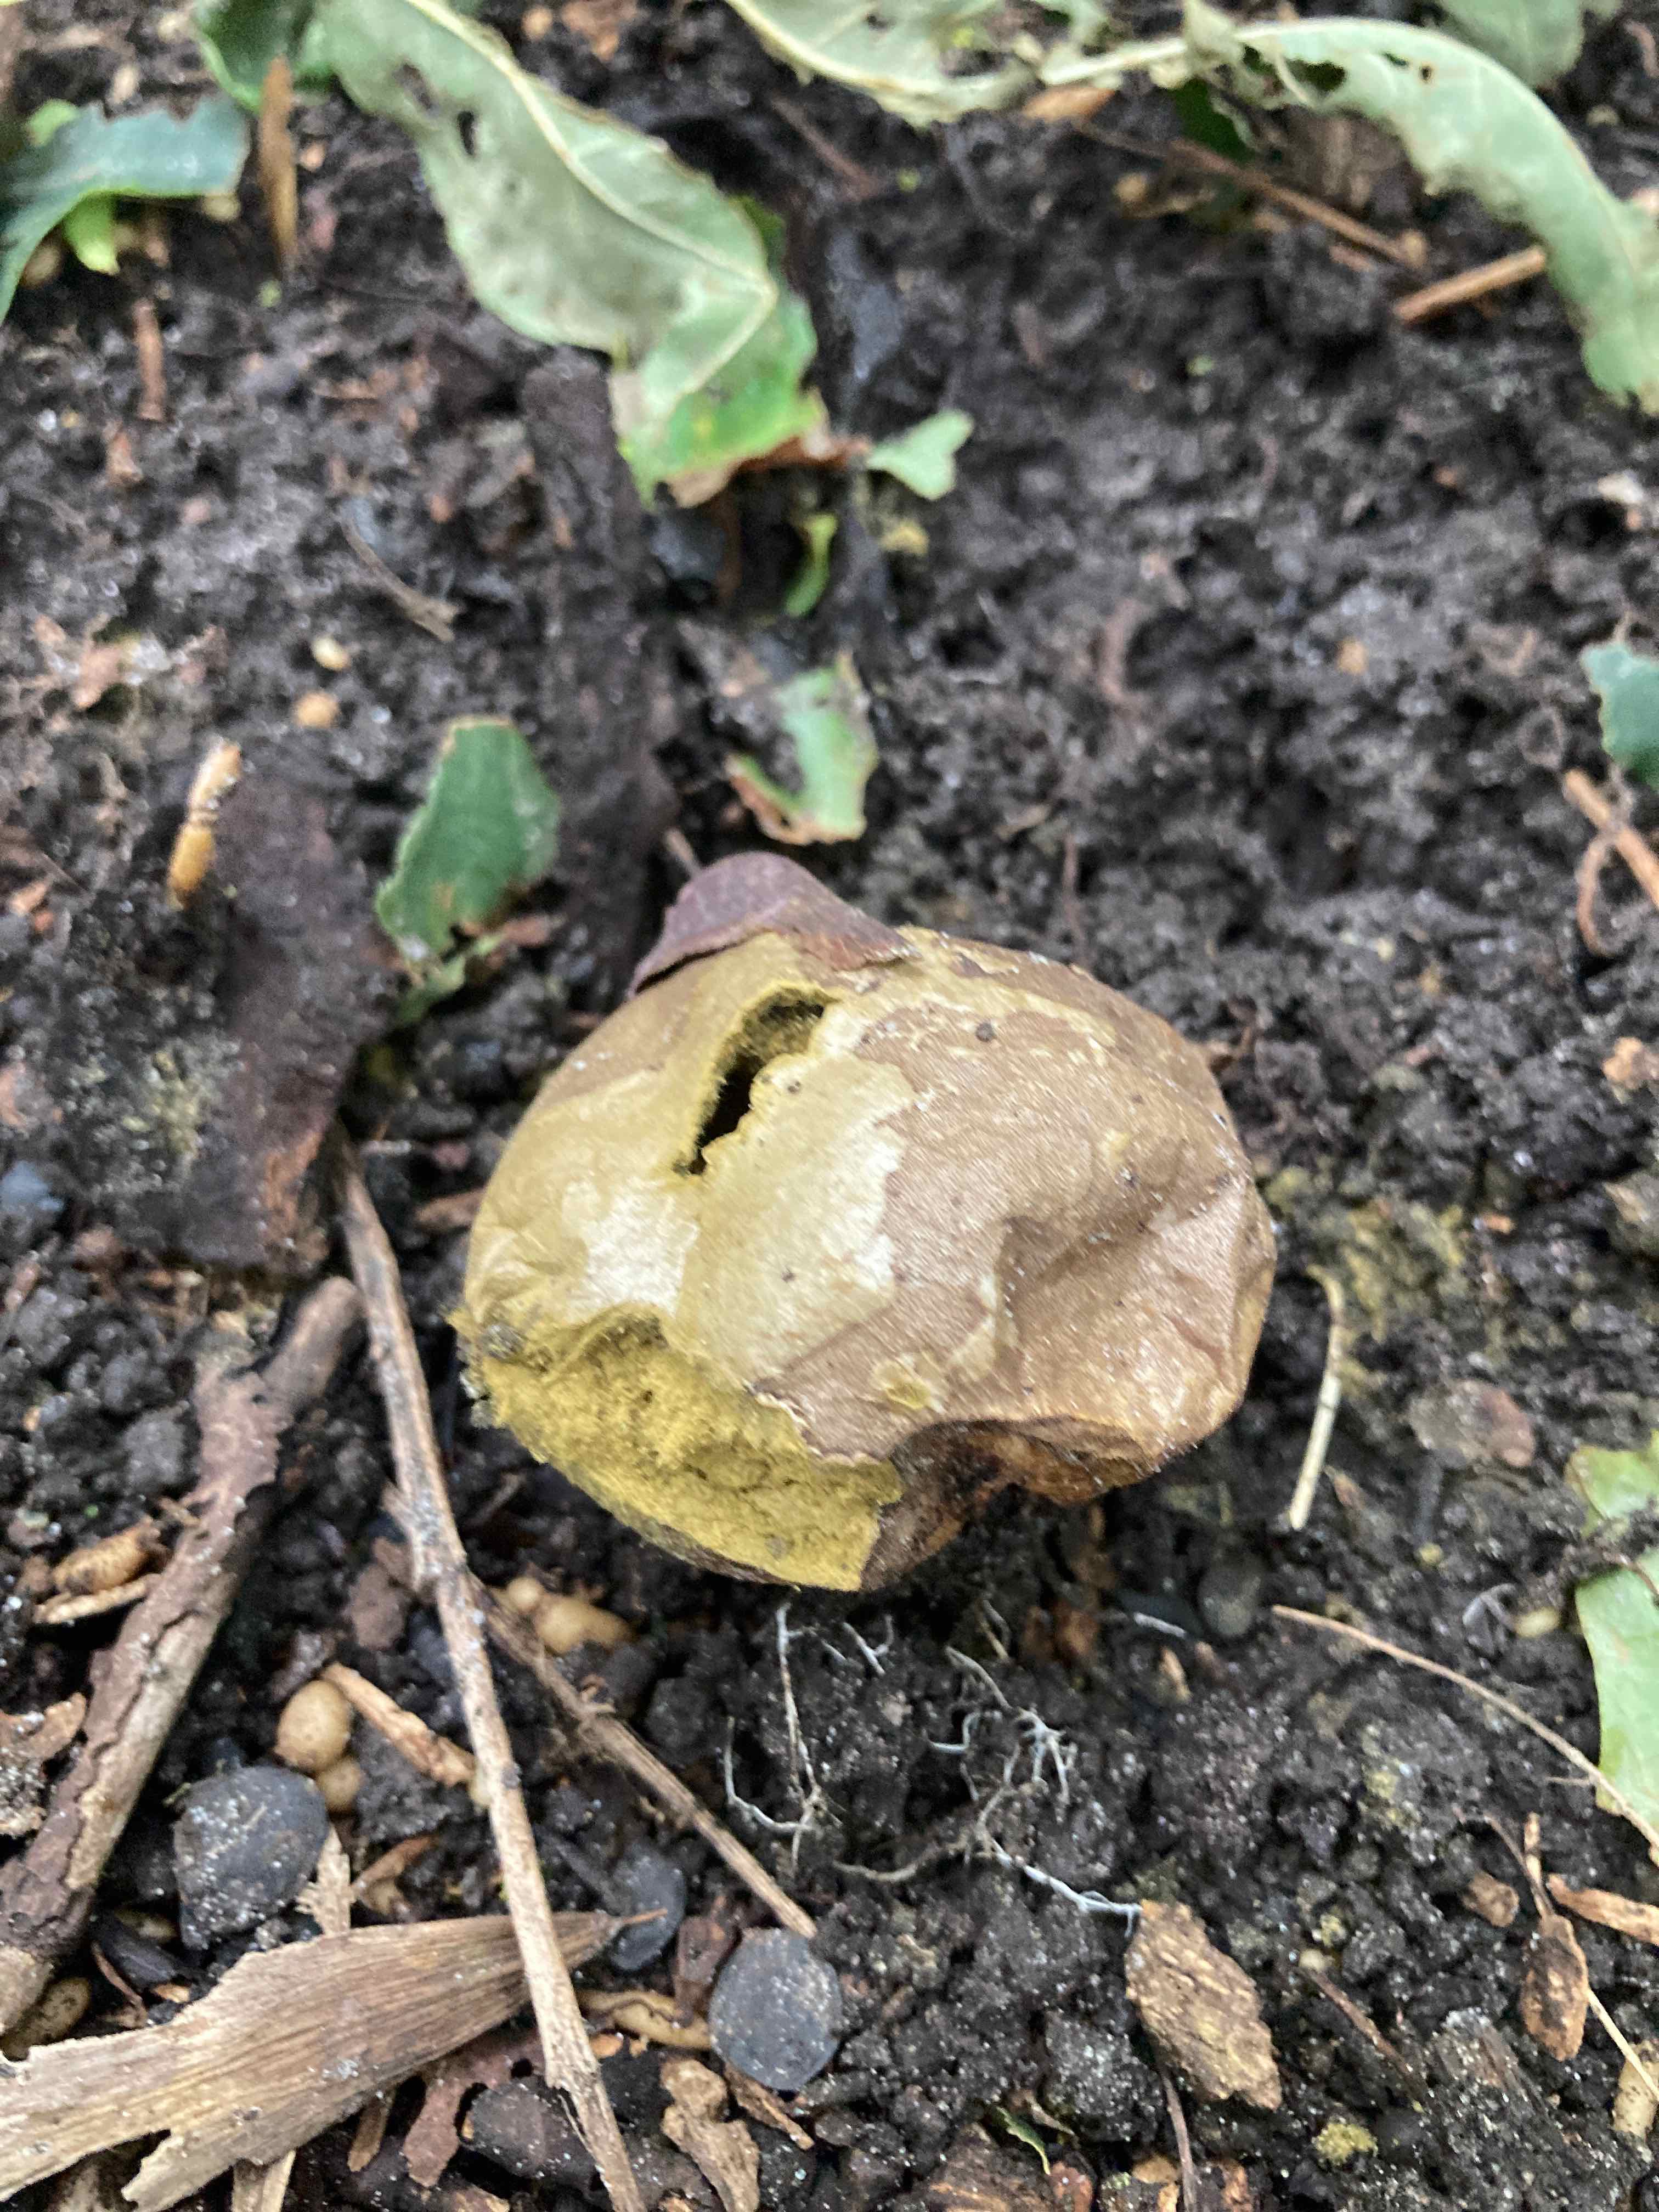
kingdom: Fungi
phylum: Basidiomycota
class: Agaricomycetes
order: Agaricales
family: Agaricaceae
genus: Lycoperdon
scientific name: Lycoperdon
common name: støvbold
